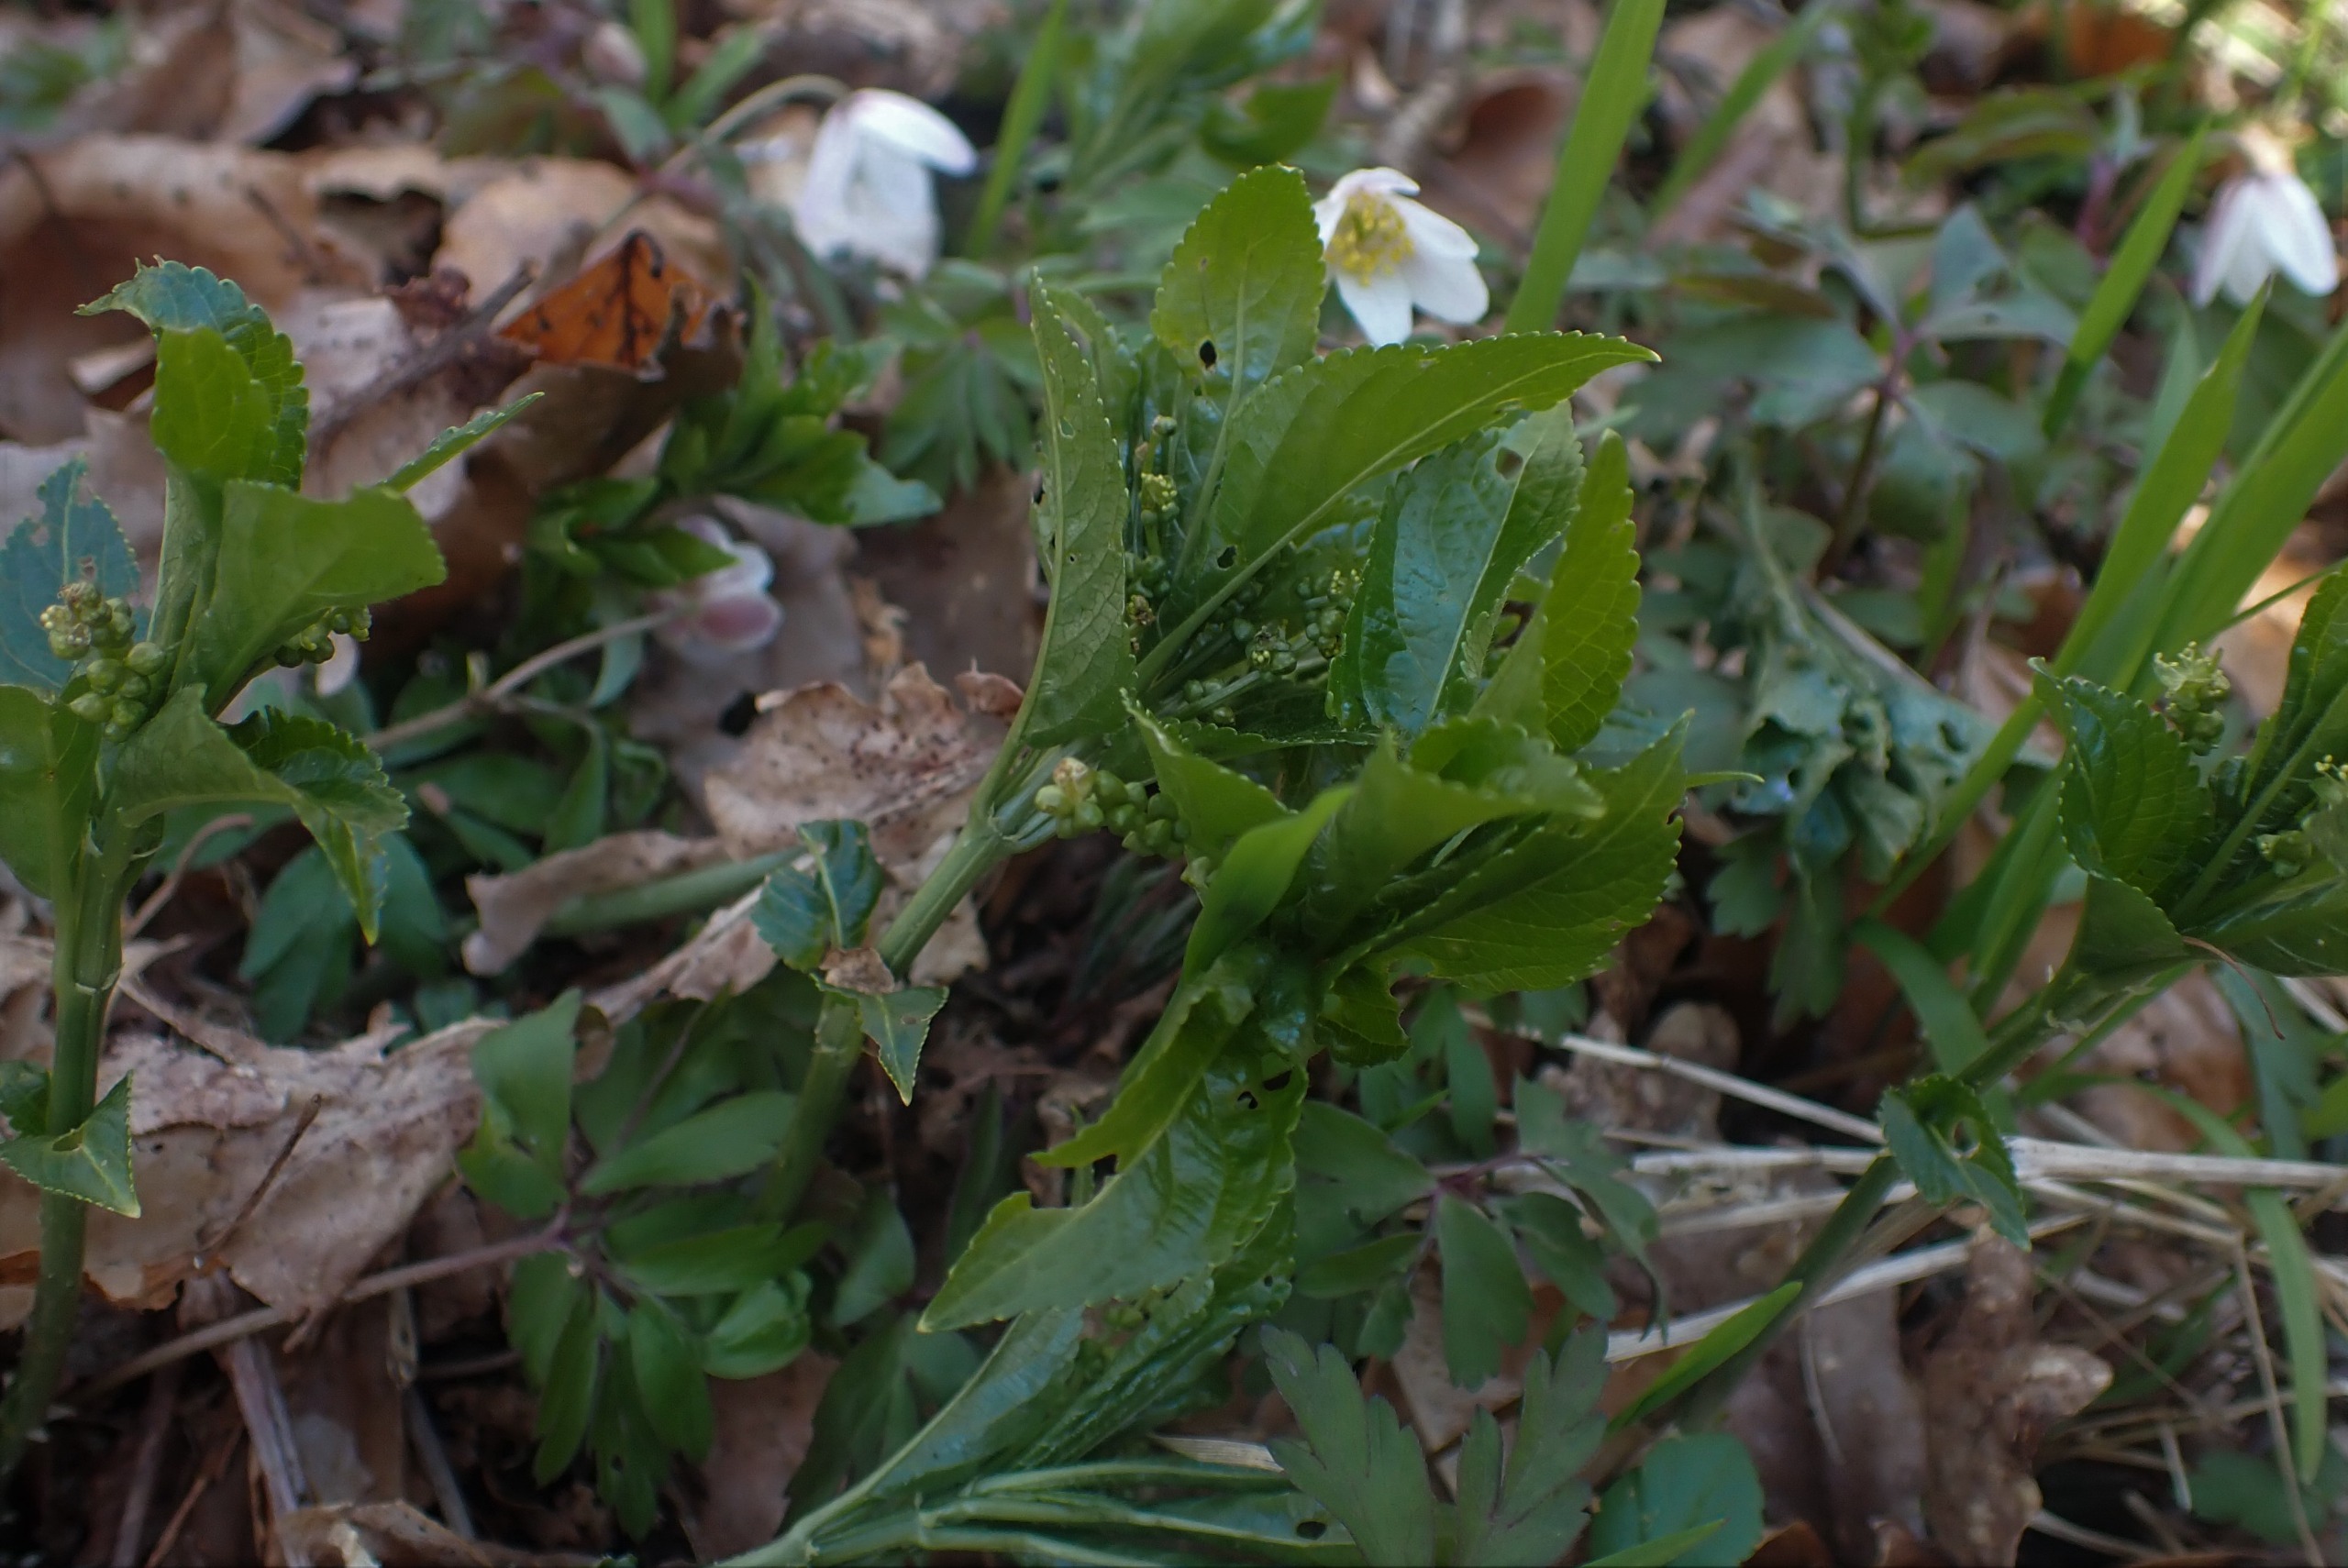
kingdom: Plantae
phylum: Tracheophyta
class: Magnoliopsida
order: Malpighiales
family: Euphorbiaceae
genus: Mercurialis
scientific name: Mercurialis perennis
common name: Almindelig bingelurt
